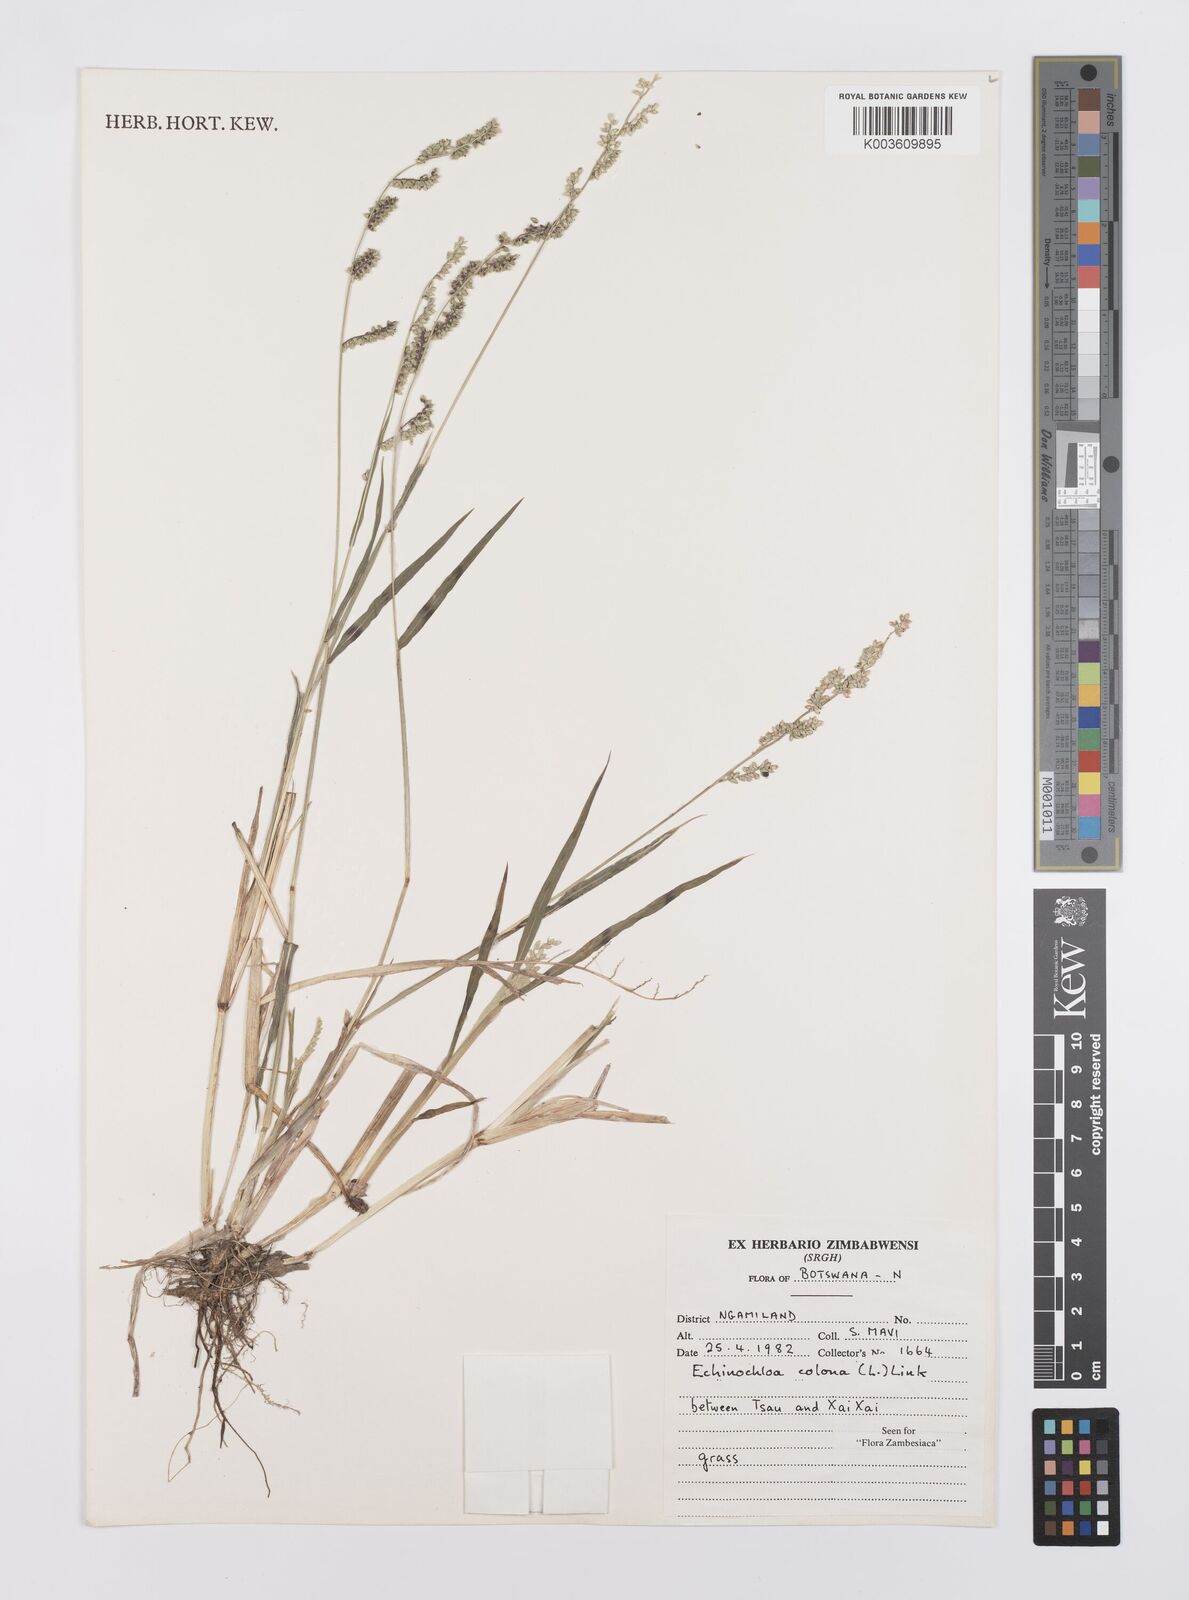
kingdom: Plantae
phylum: Tracheophyta
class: Liliopsida
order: Poales
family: Poaceae
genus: Echinochloa
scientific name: Echinochloa colonum
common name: Jungle rice
